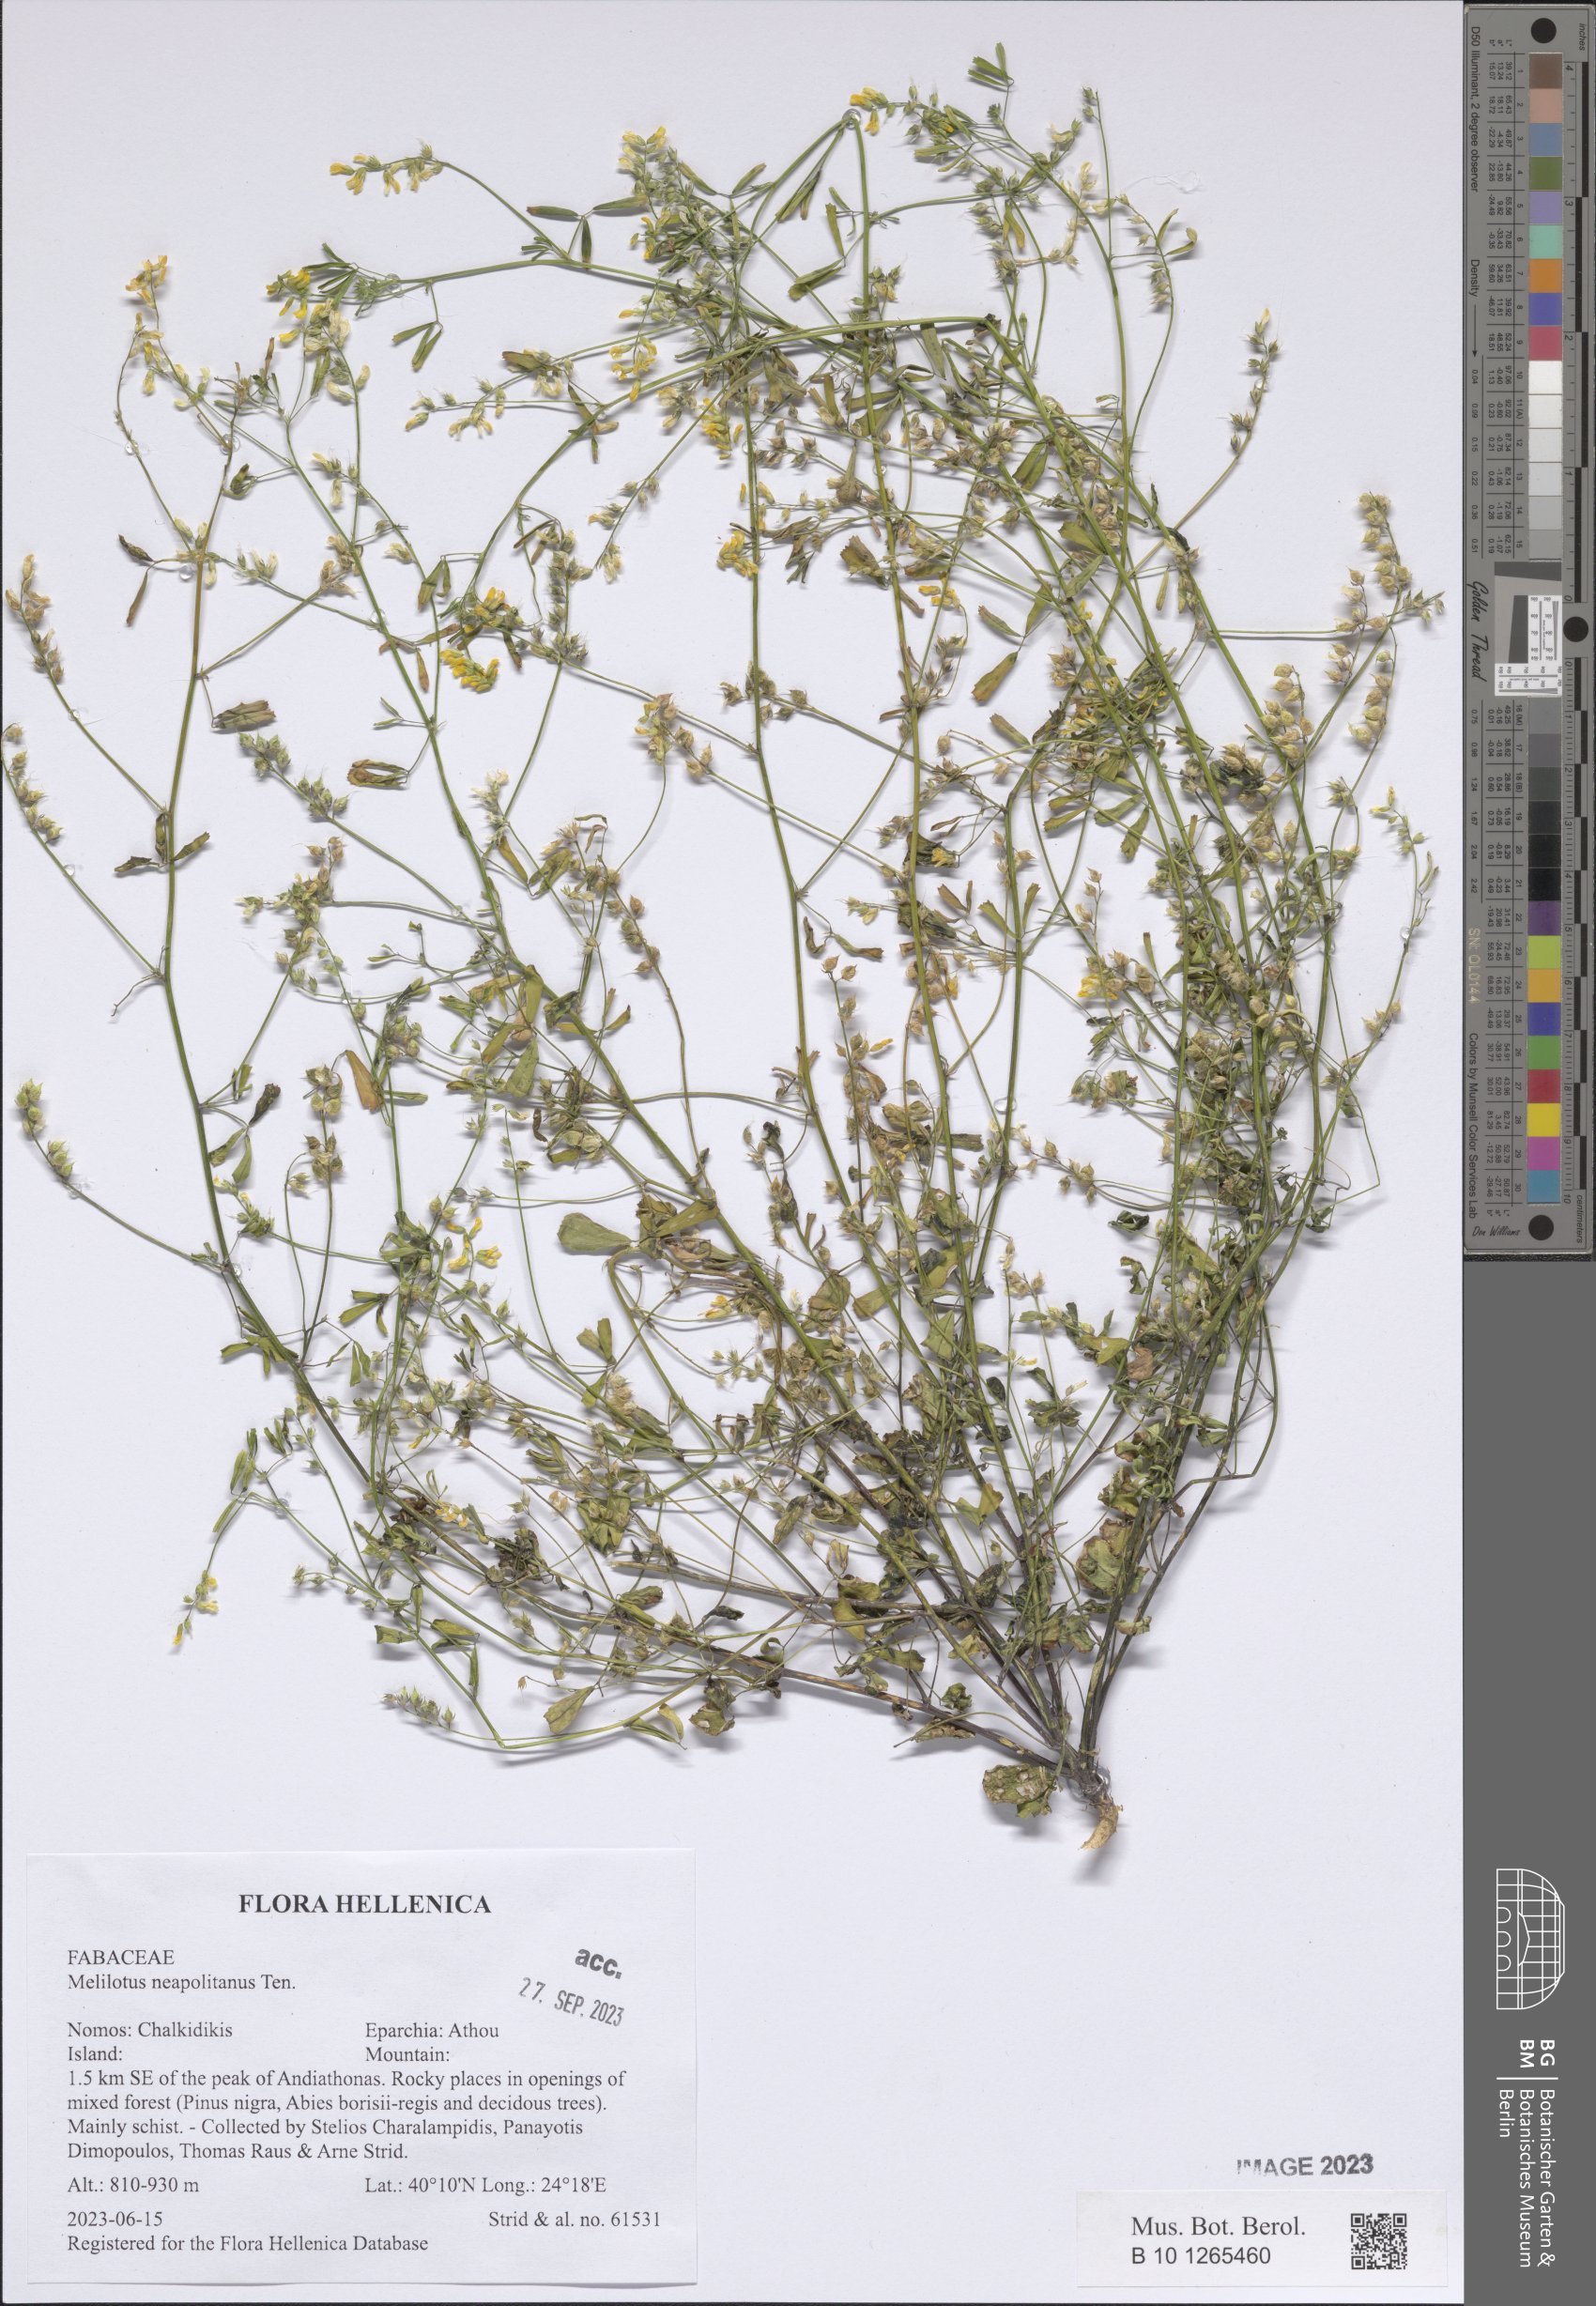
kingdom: Plantae
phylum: Tracheophyta
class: Magnoliopsida
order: Fabales
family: Fabaceae
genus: Melilotus
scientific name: Melilotus neapolitanus
